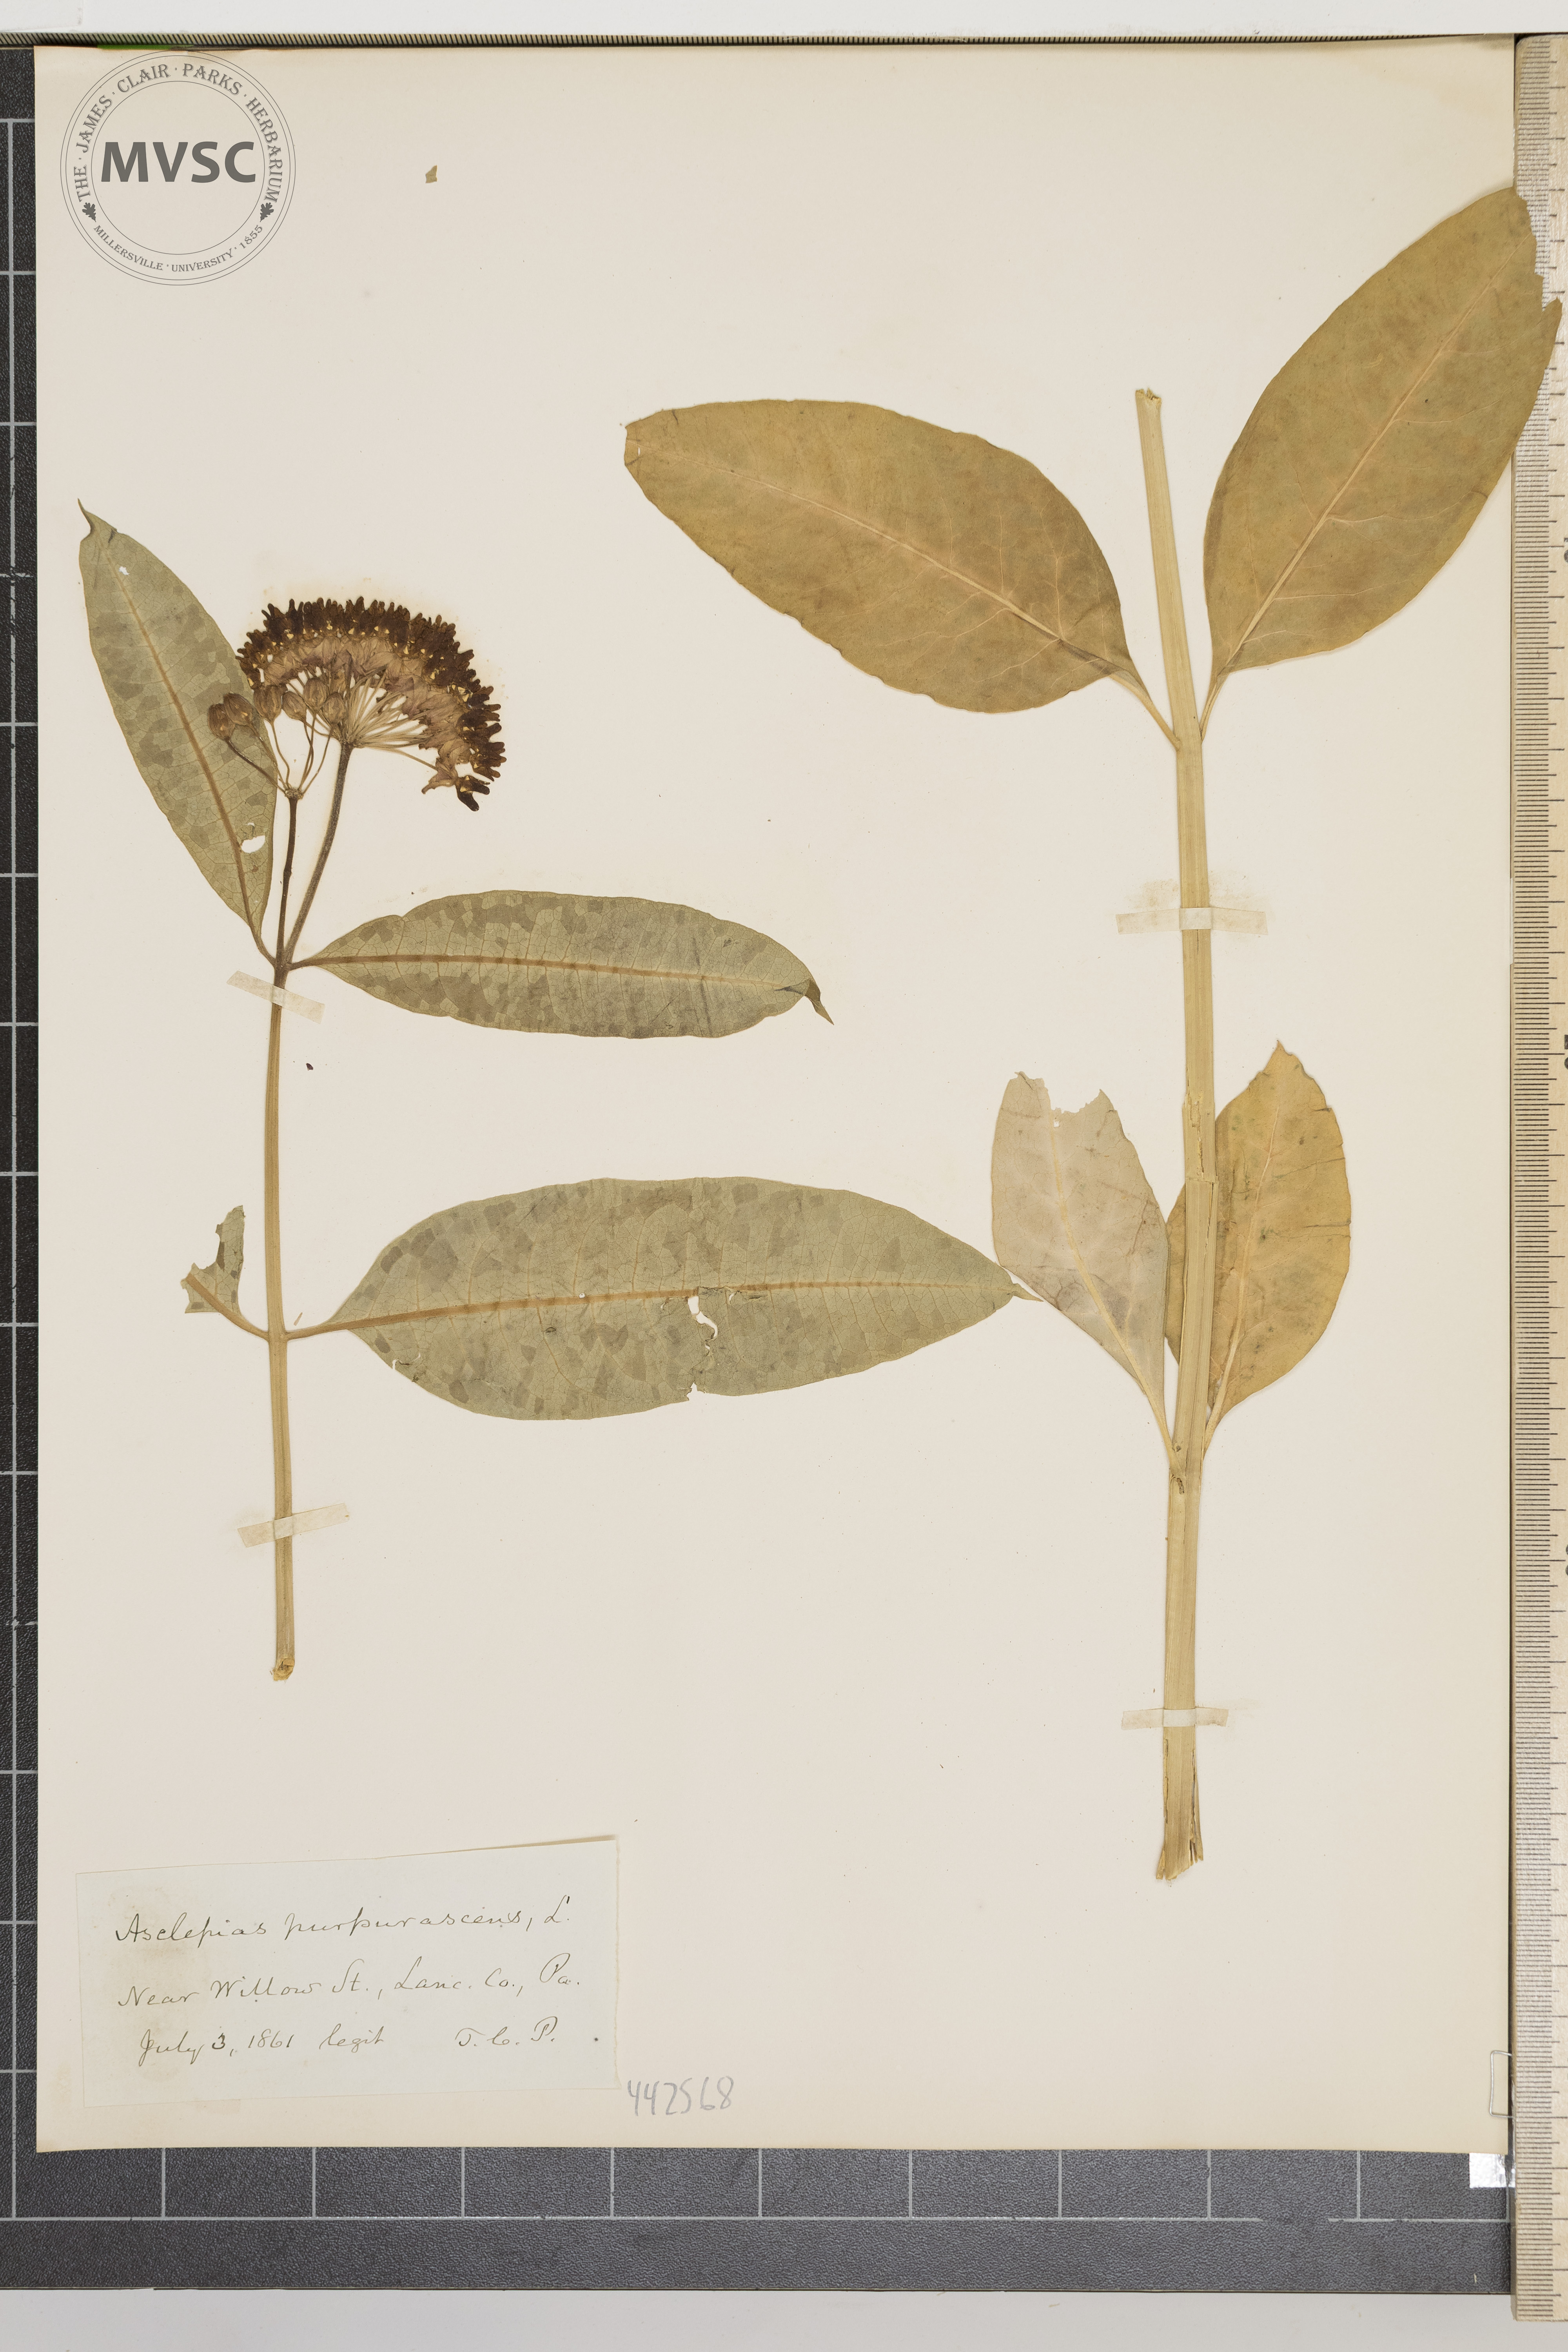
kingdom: Plantae
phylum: Tracheophyta
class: Magnoliopsida
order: Gentianales
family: Apocynaceae
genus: Asclepias
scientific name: Asclepias purpurascens
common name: Purple milkweed
